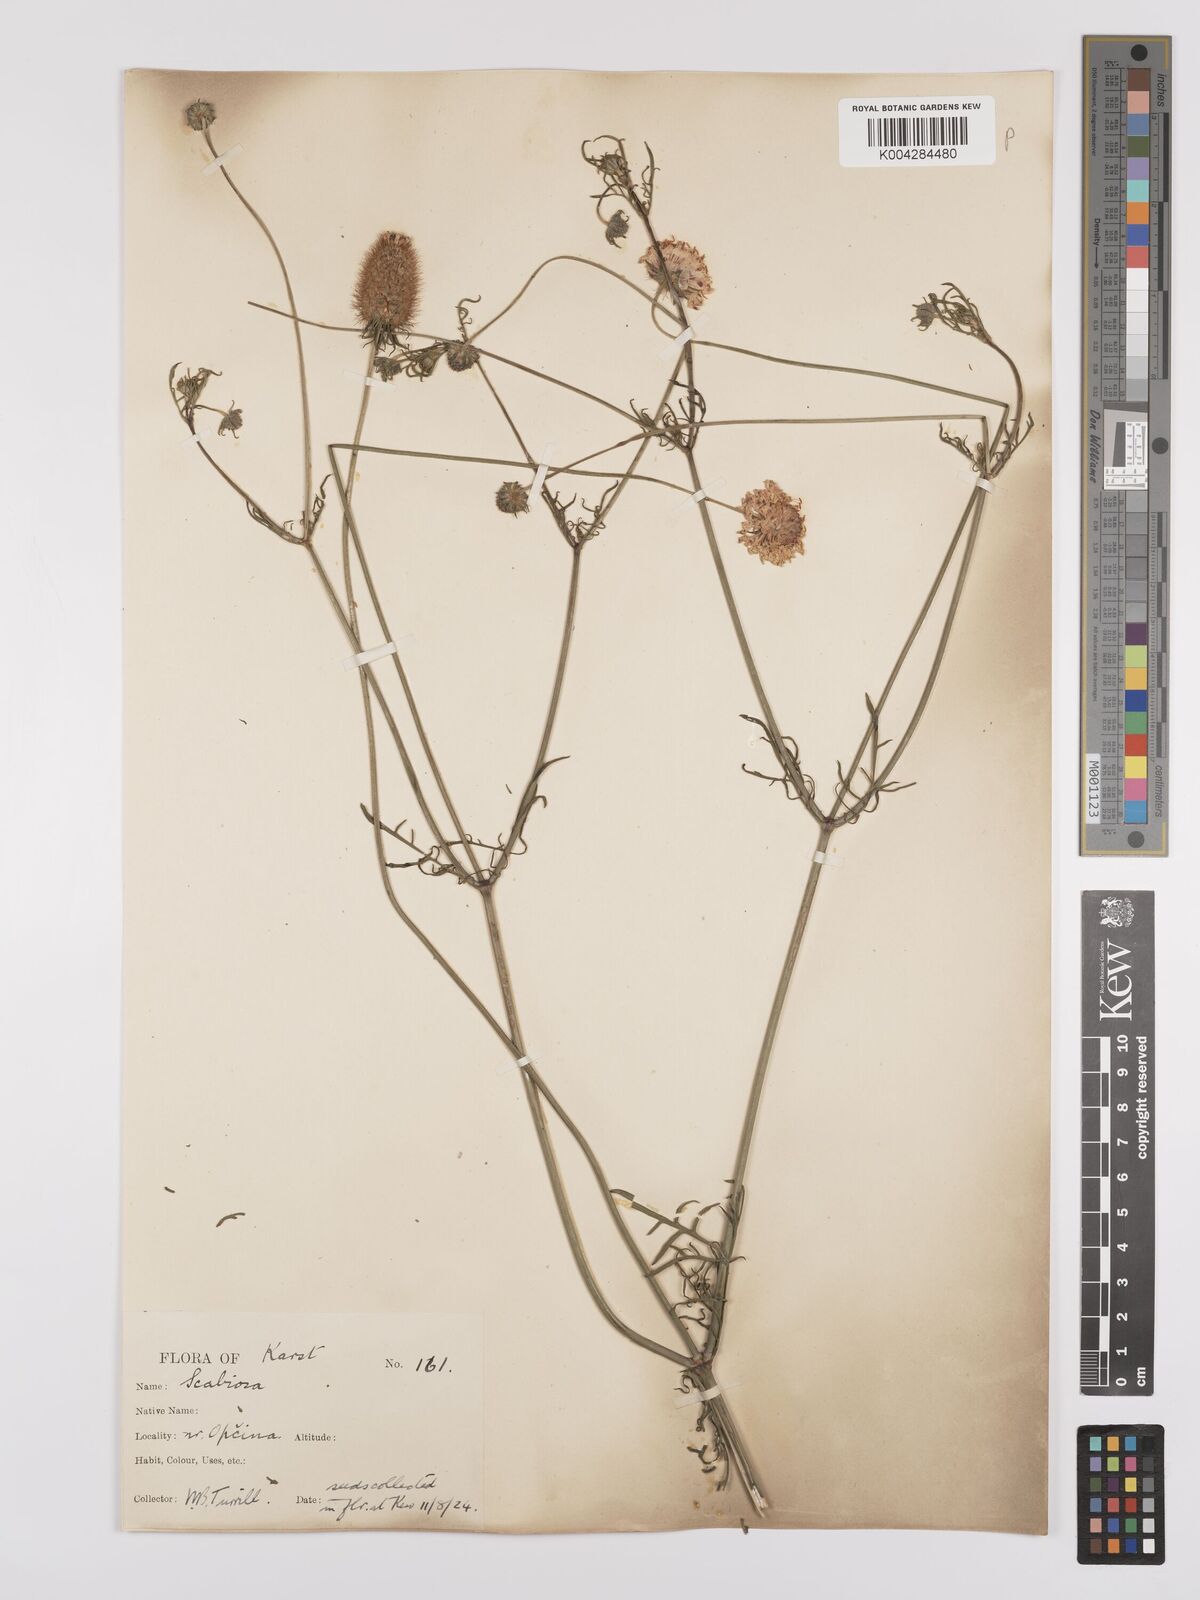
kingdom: Plantae
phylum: Tracheophyta
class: Magnoliopsida
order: Dipsacales
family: Caprifoliaceae
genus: Sixalix
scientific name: Sixalix maritima
